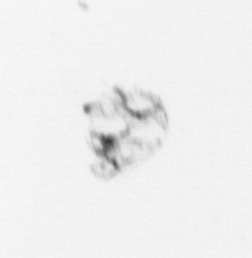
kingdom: Animalia
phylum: Arthropoda
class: Maxillopoda
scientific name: Maxillopoda
